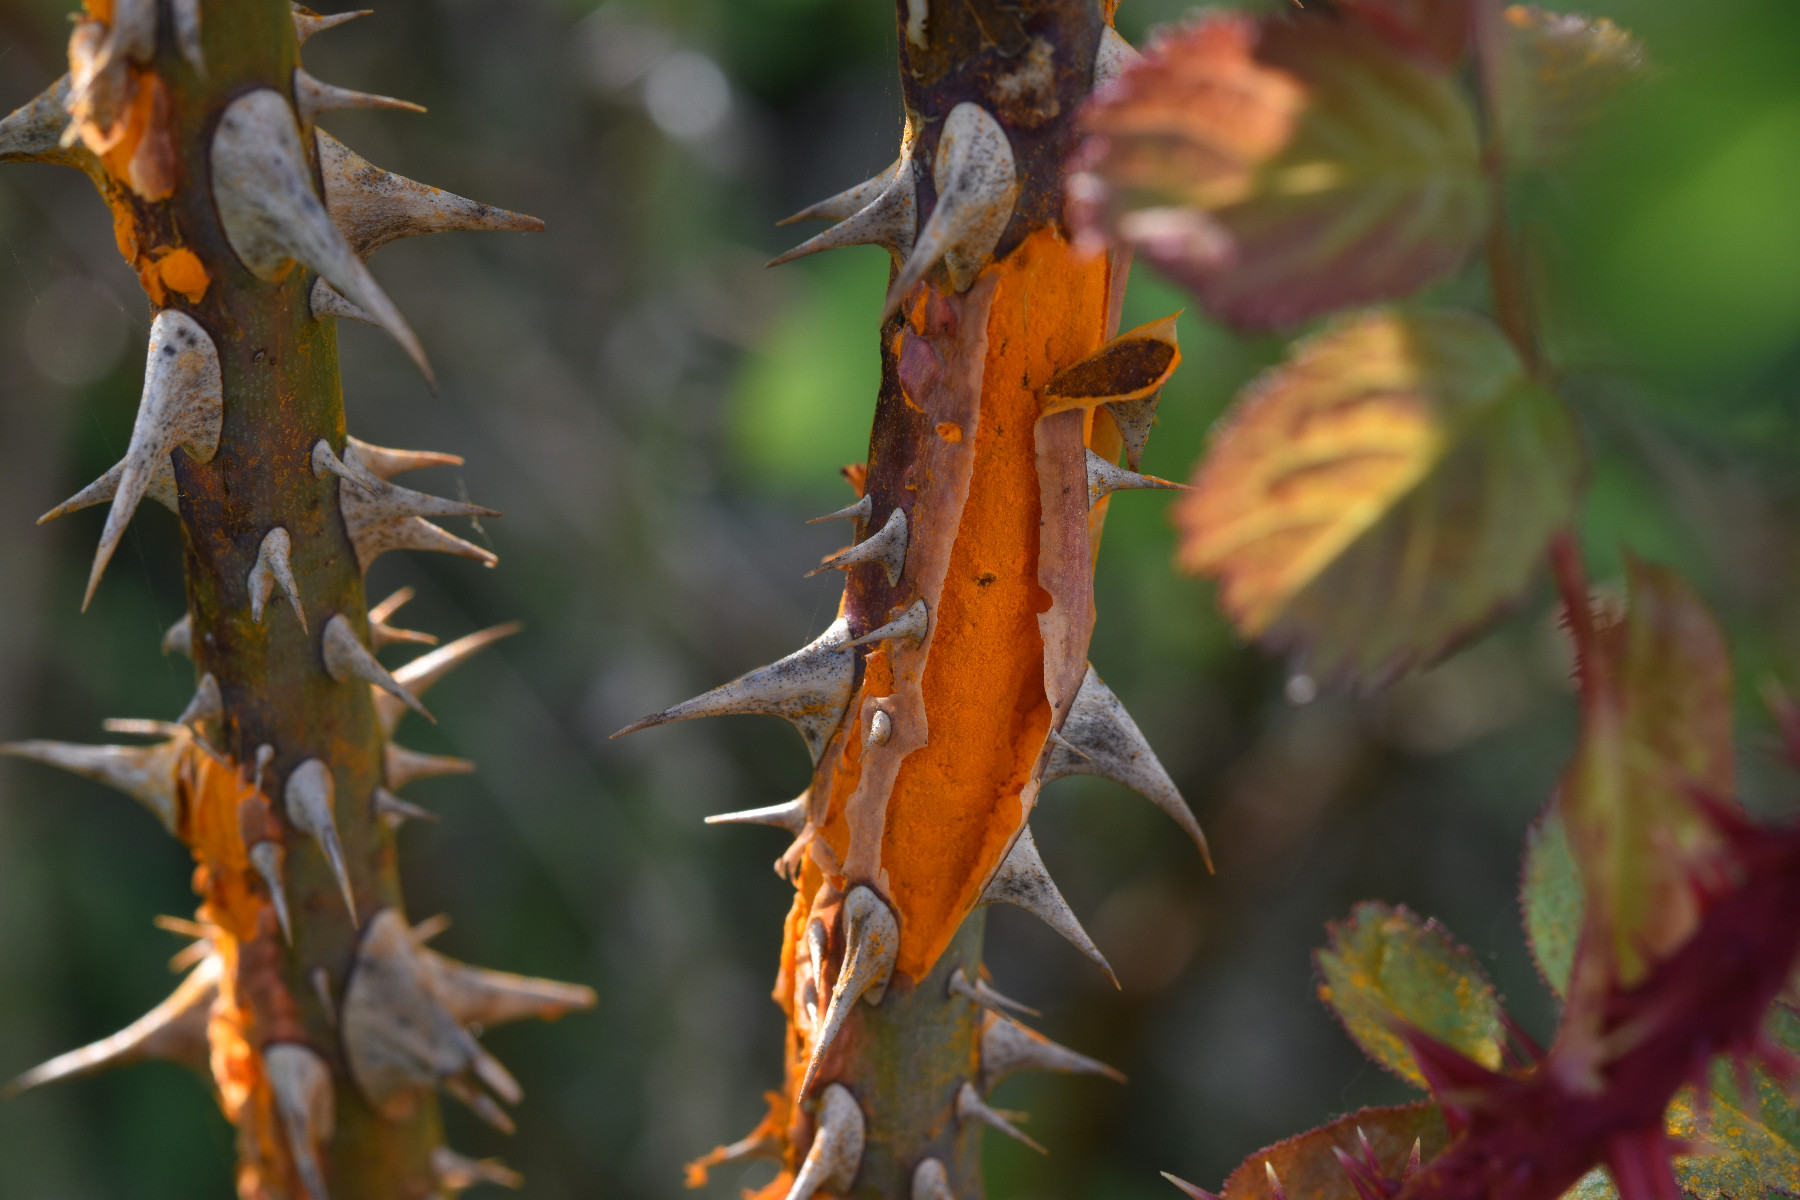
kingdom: Fungi
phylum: Basidiomycota
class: Pucciniomycetes
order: Pucciniales
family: Phragmidiaceae
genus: Phragmidium
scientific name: Phragmidium tuberculatum
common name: Rose rust
